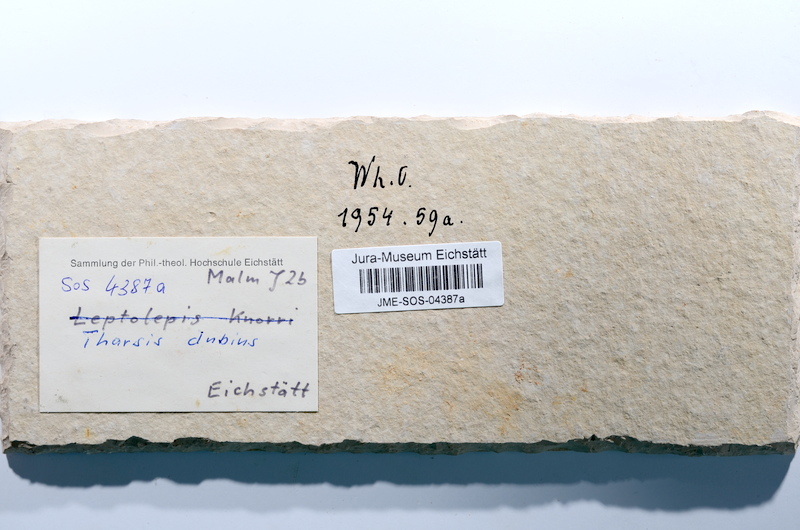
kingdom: Animalia
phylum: Chordata
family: Ascalaboidae
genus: Tharsis
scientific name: Tharsis dubius
